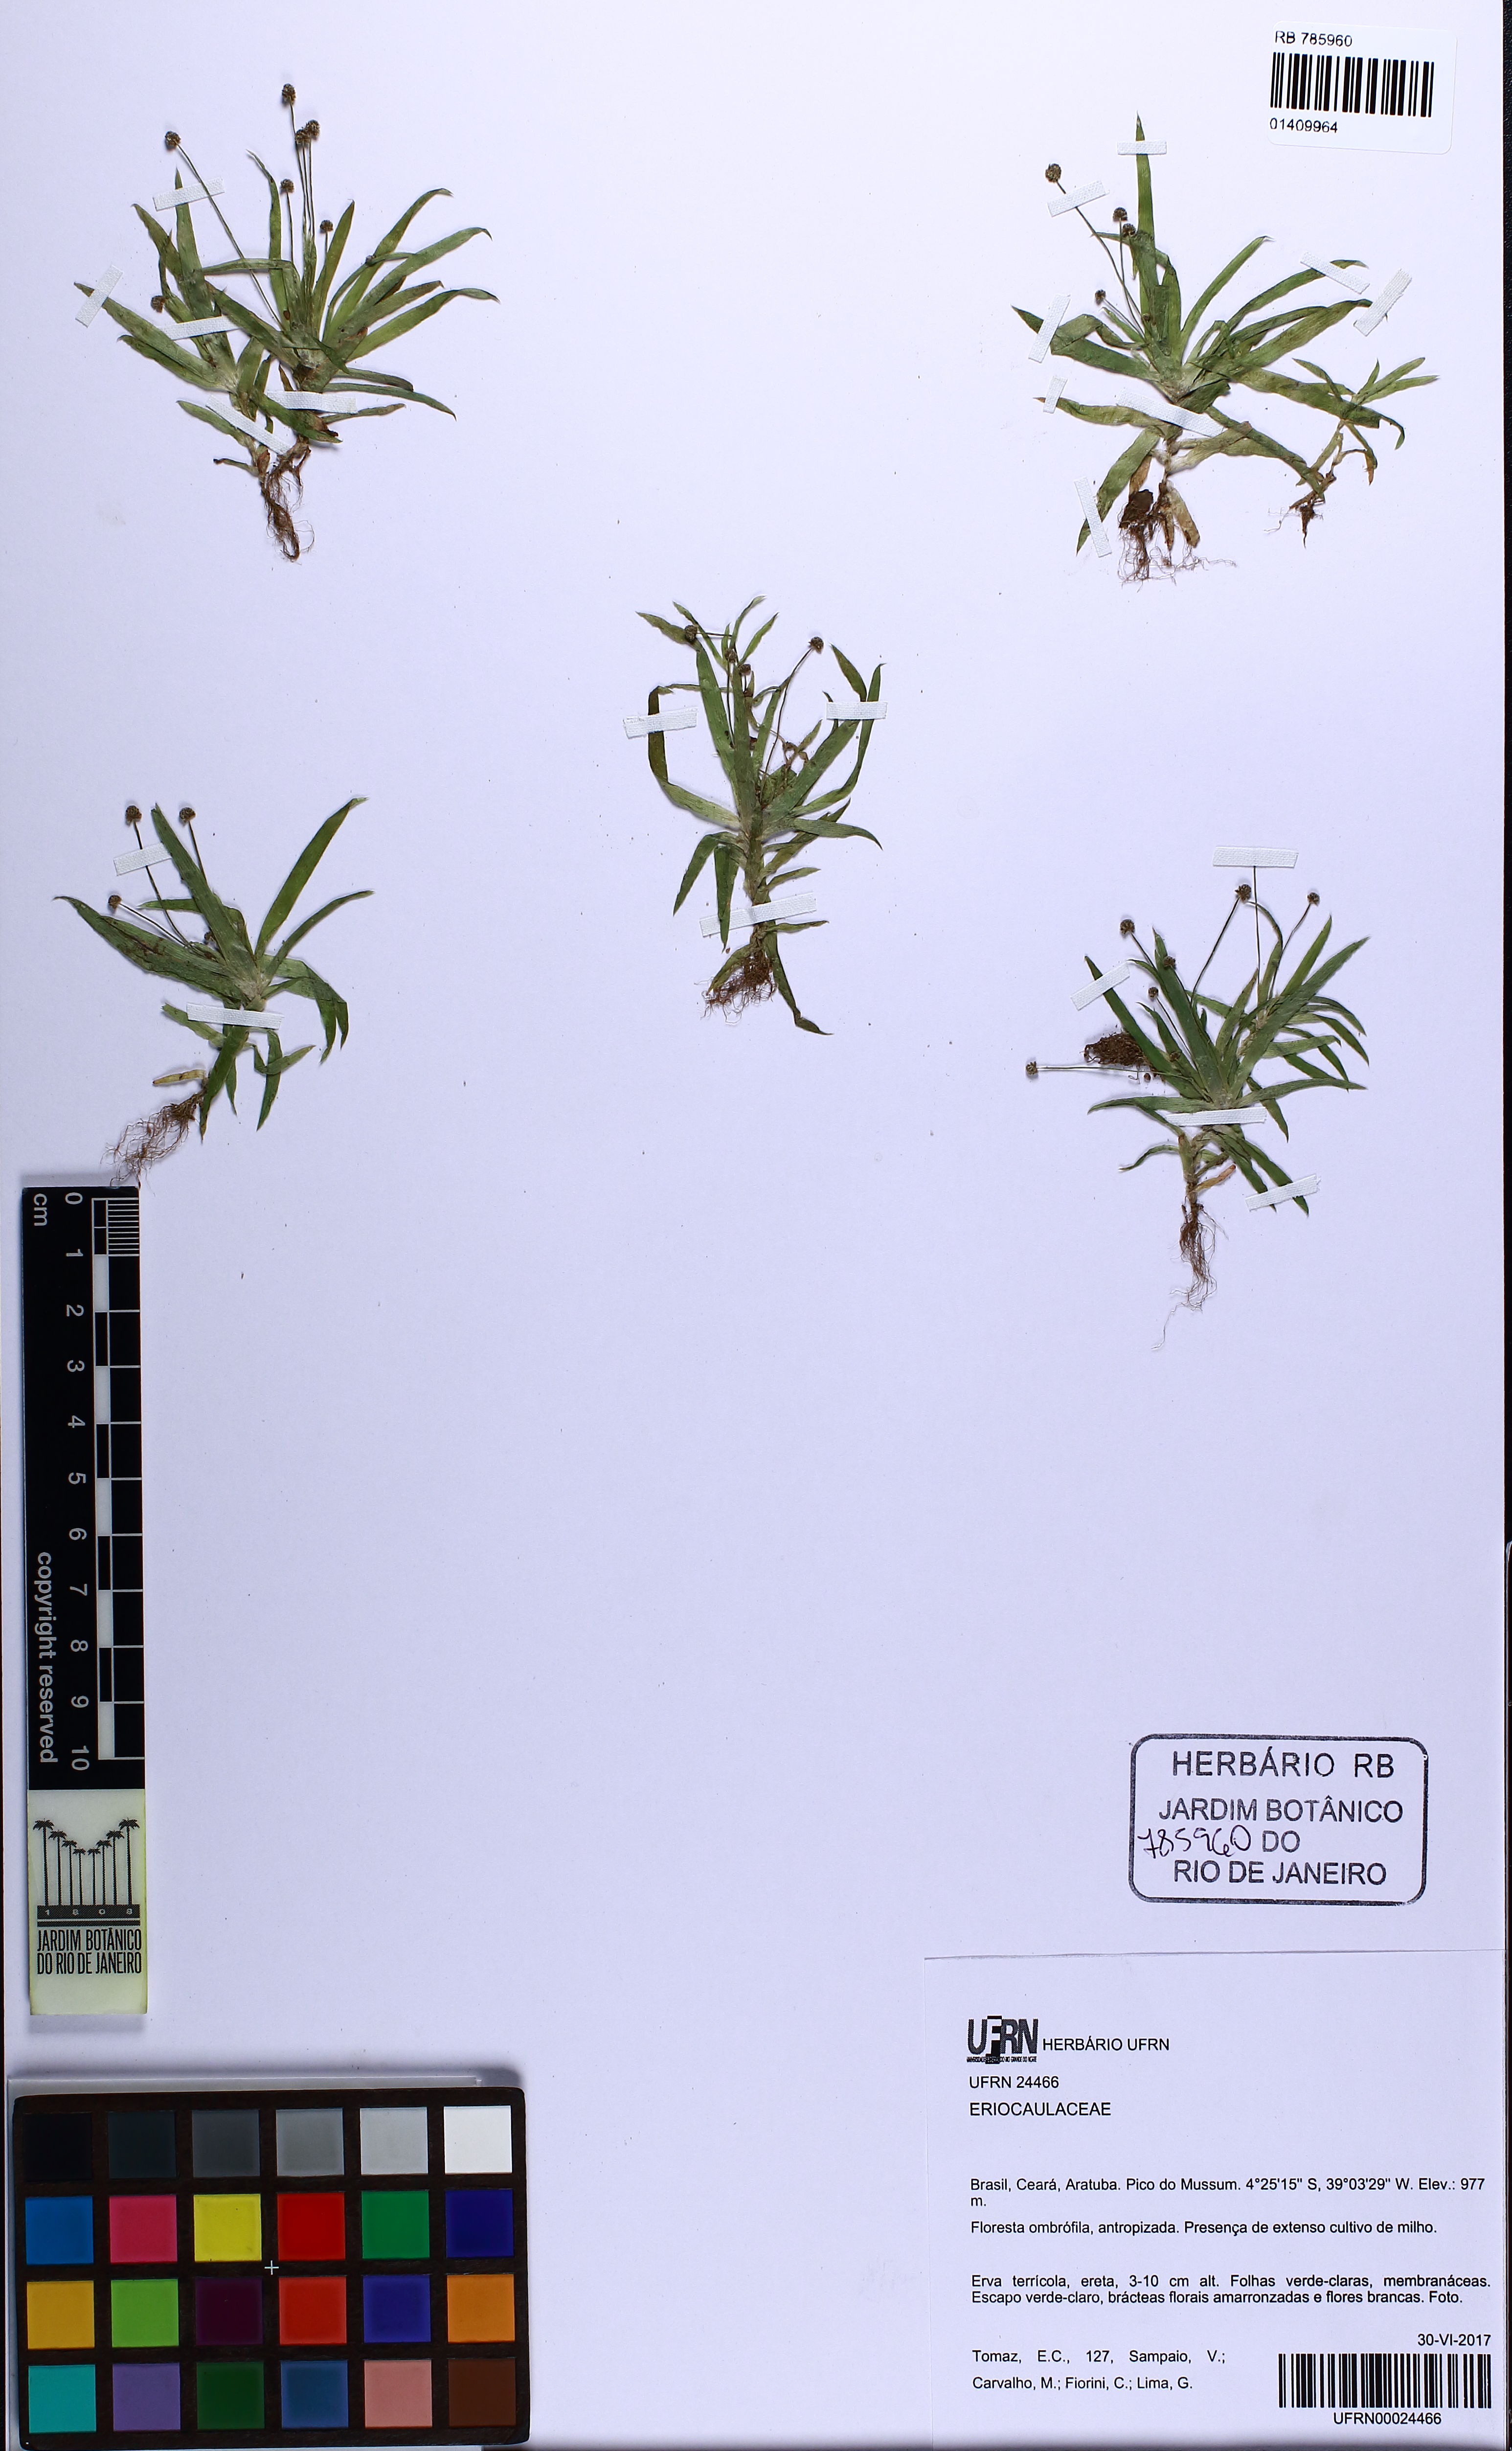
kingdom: Plantae
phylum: Tracheophyta
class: Liliopsida
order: Poales
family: Eriocaulaceae
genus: Paepalanthus
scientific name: Paepalanthus
